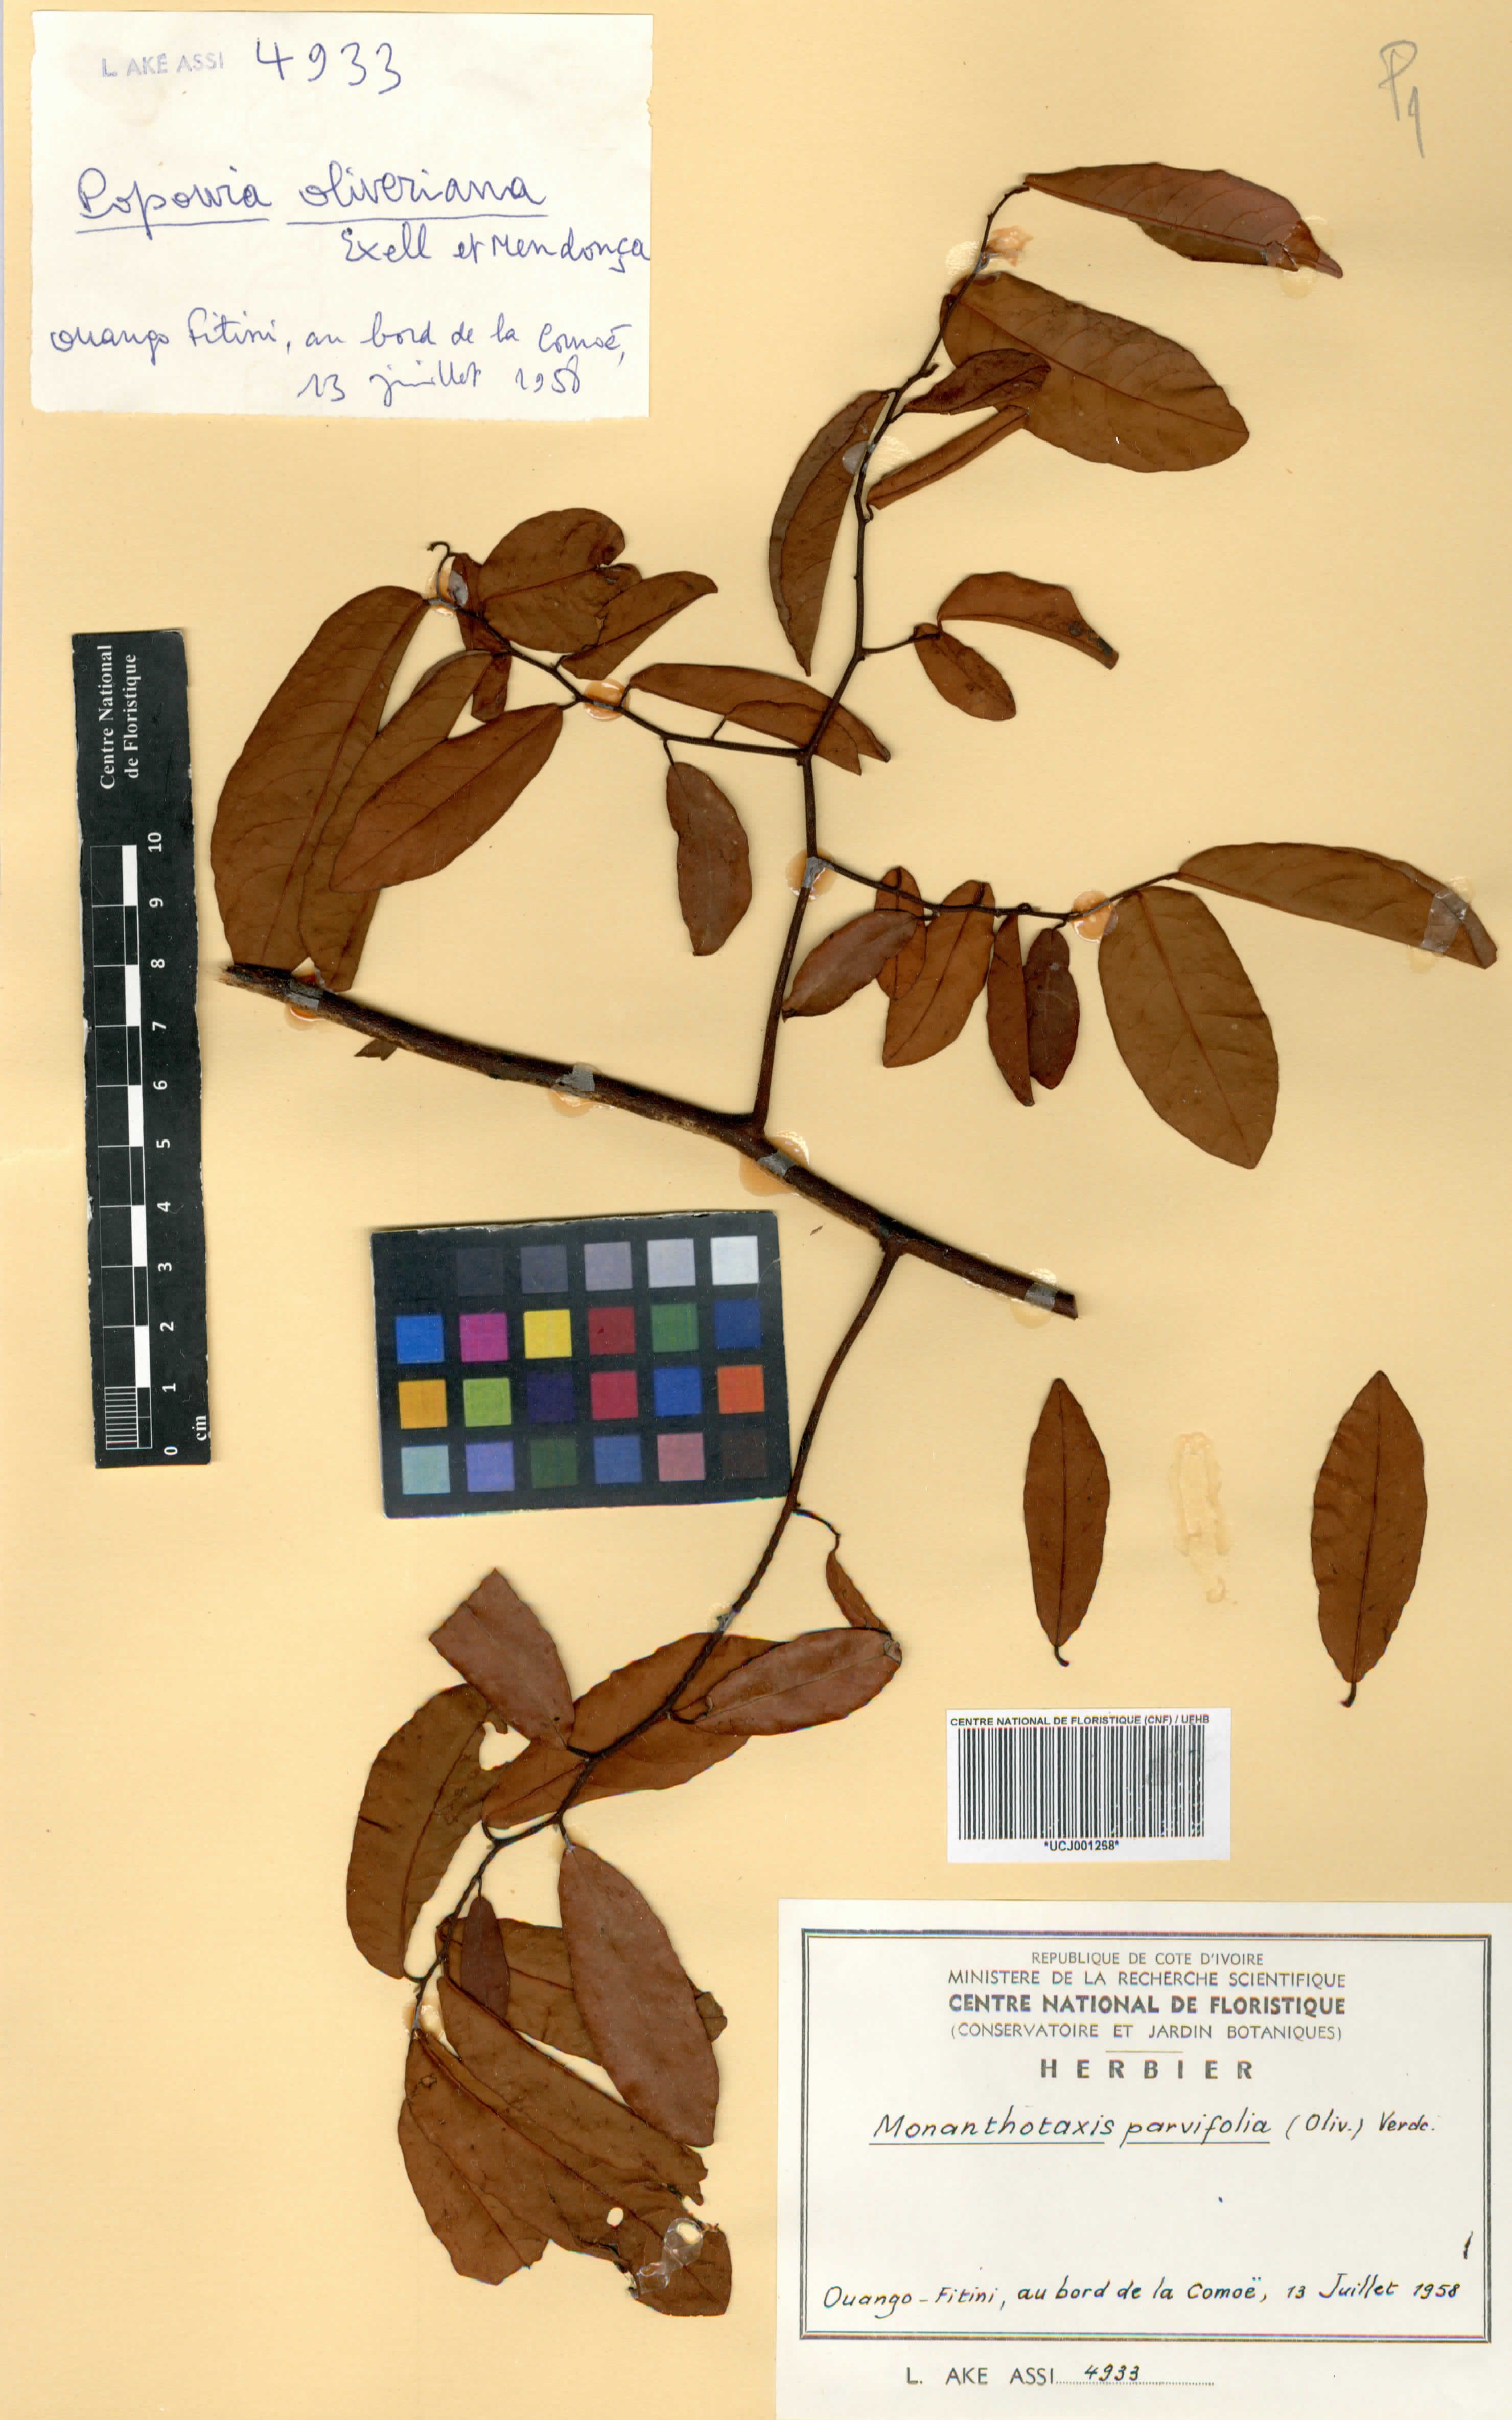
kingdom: Plantae
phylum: Tracheophyta
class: Magnoliopsida
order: Magnoliales
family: Annonaceae
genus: Monanthotaxis
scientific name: Monanthotaxis parvifolia
